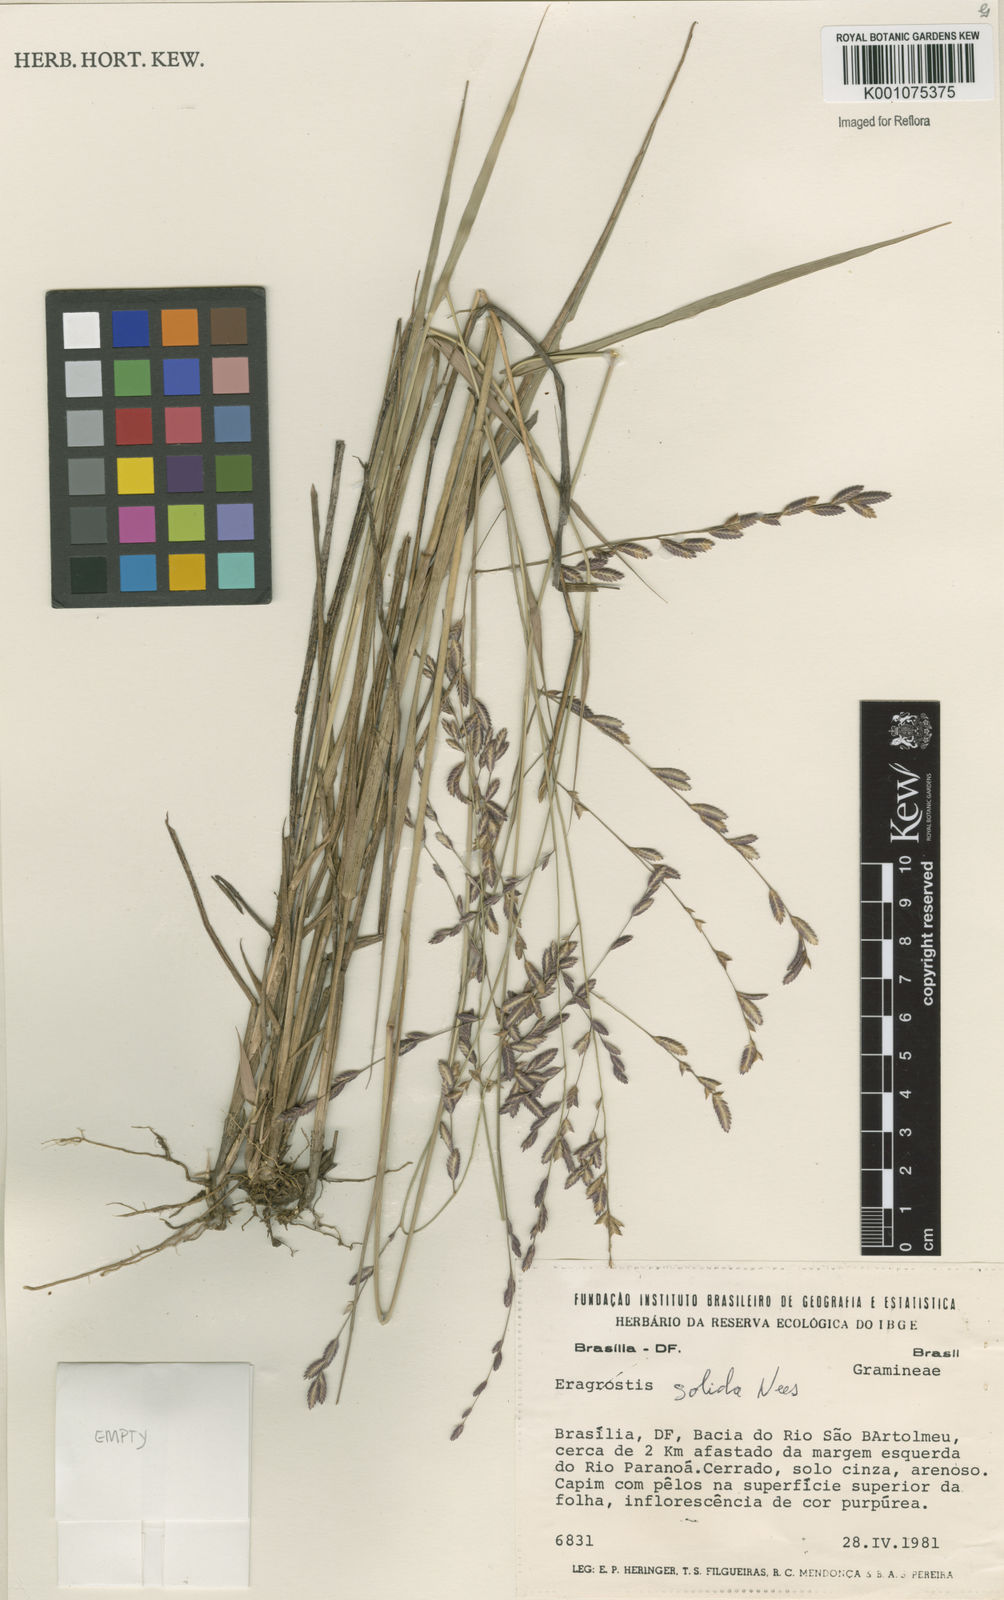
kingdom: Plantae
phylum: Tracheophyta
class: Liliopsida
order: Poales
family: Poaceae
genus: Eragrostis
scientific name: Eragrostis solida
